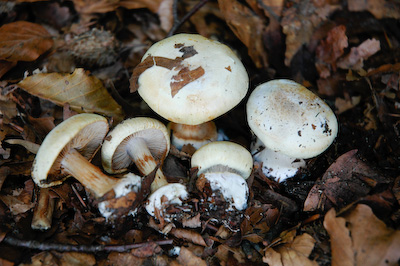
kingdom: Fungi
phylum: Basidiomycota
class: Agaricomycetes
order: Agaricales
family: Cortinariaceae
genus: Calonarius
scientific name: Calonarius lilacinovelatus
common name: violetknoldet slørhat
